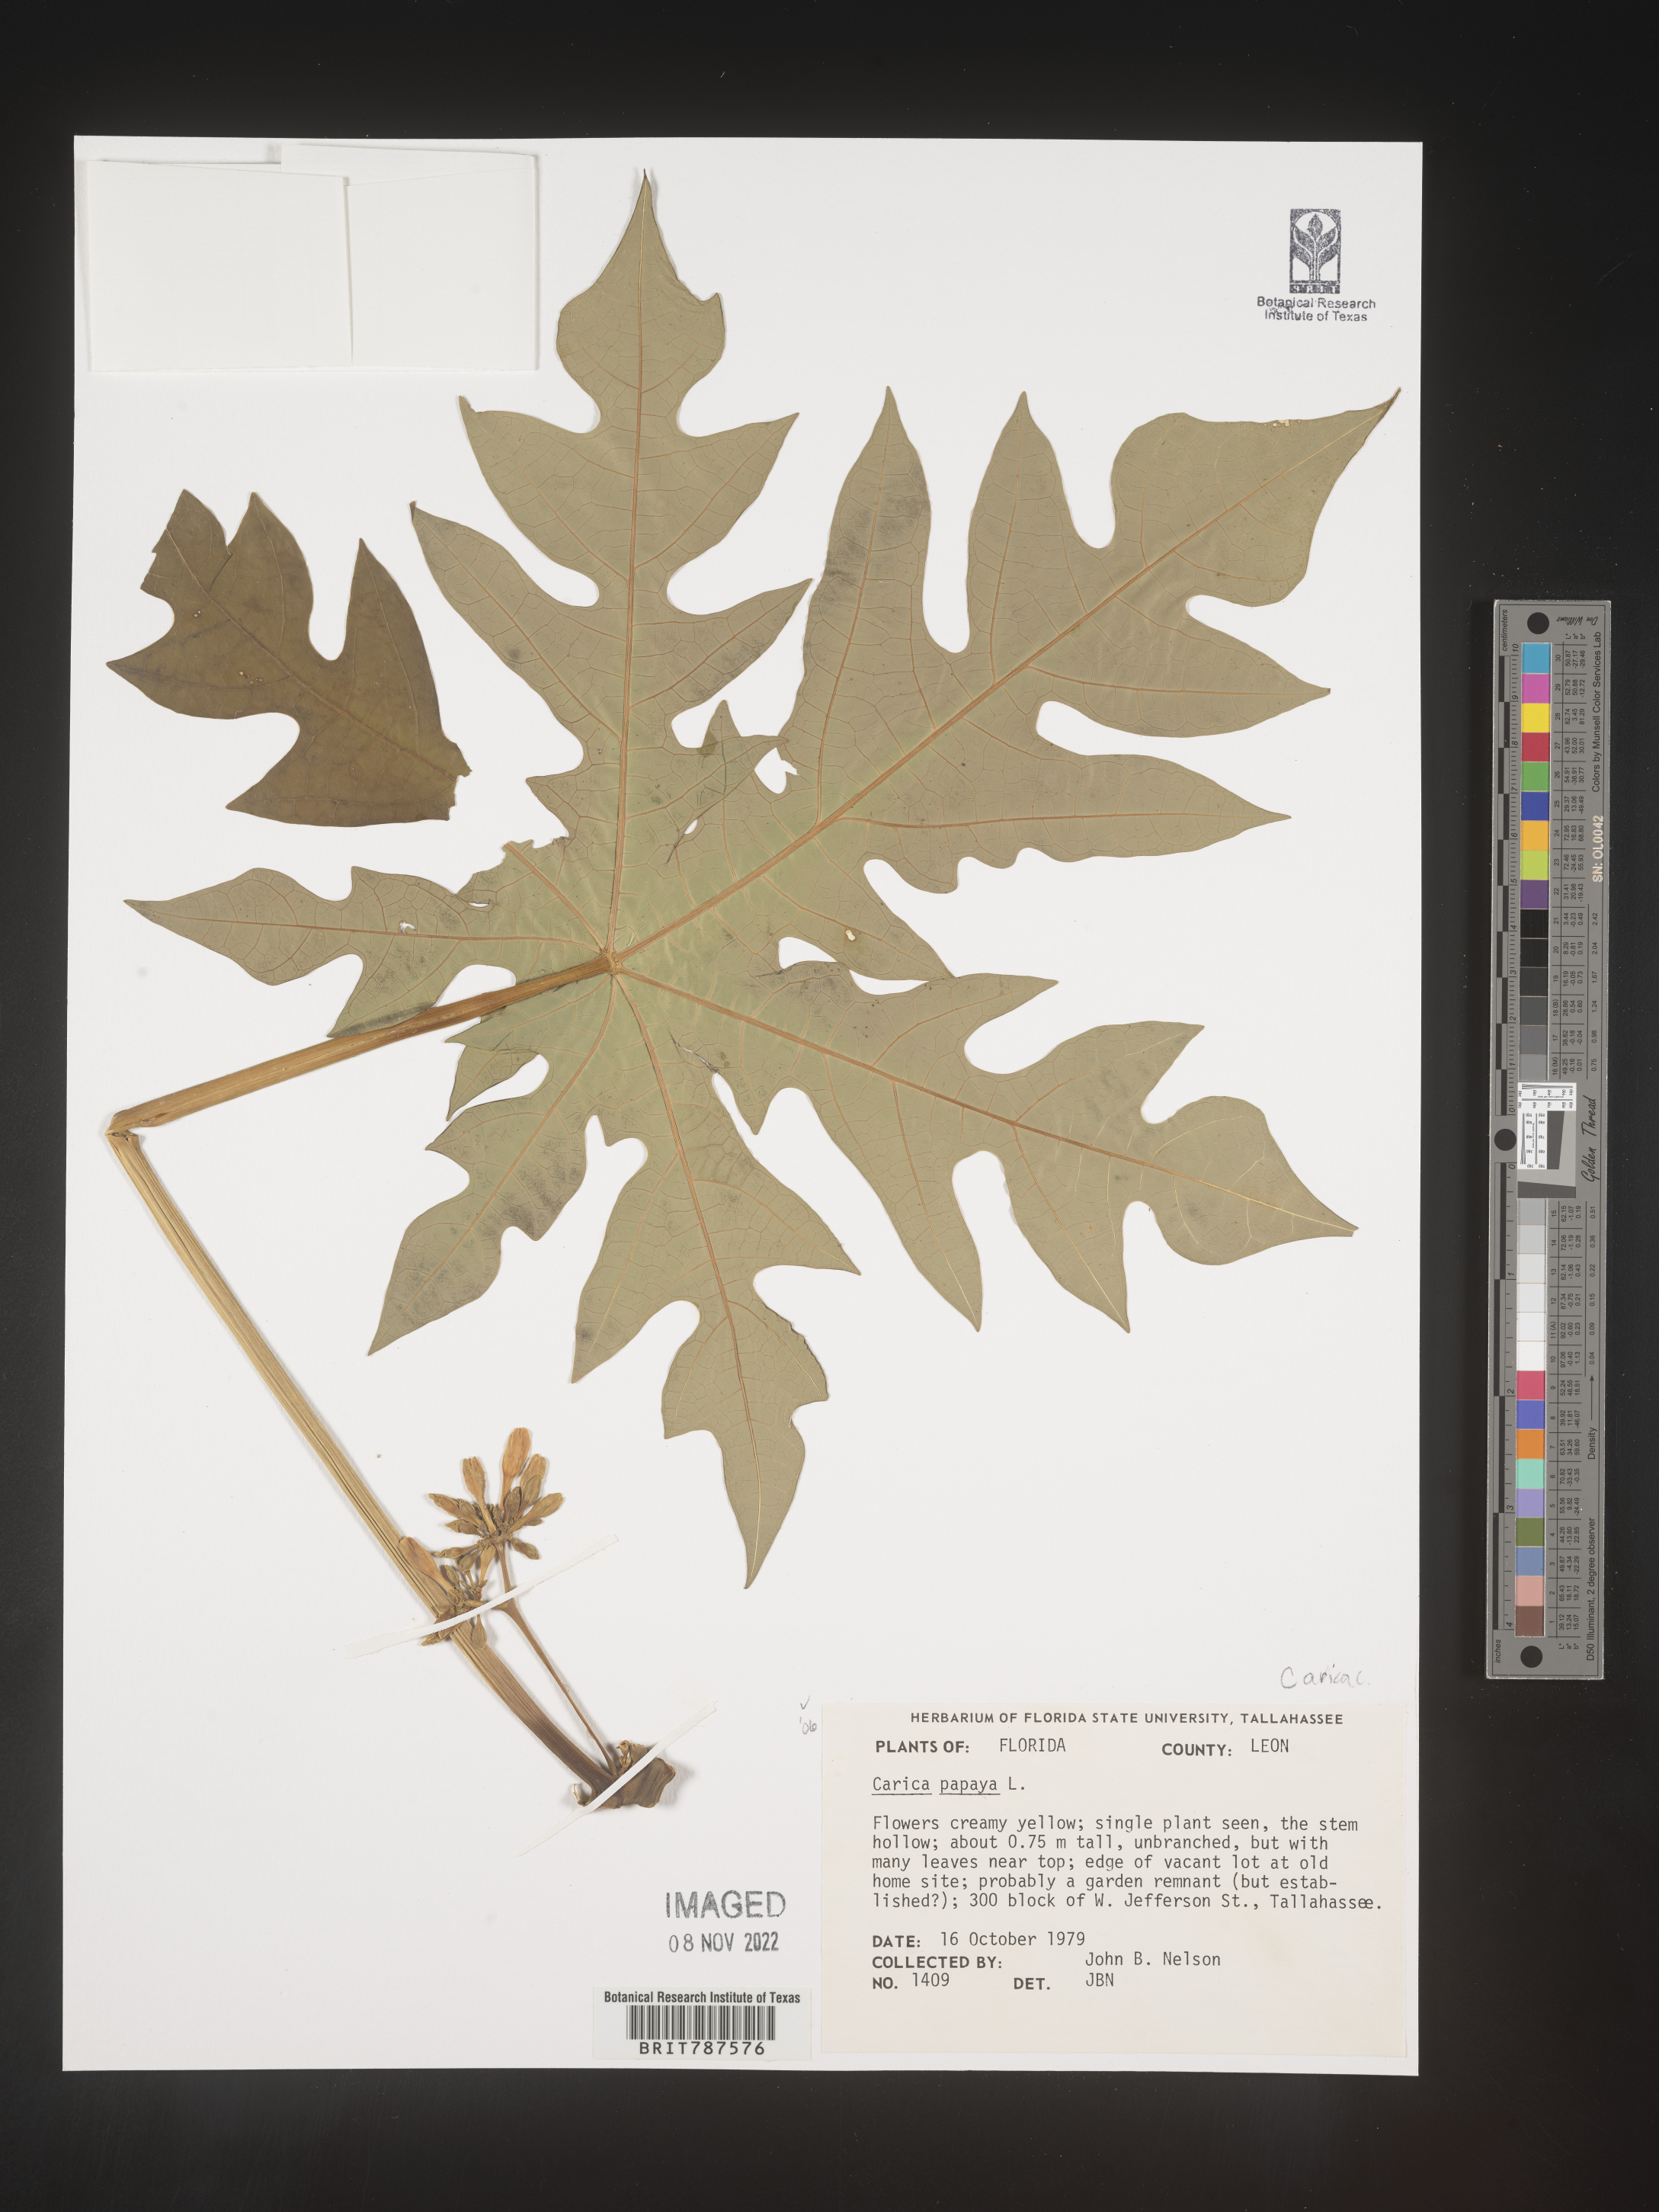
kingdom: Plantae
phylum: Tracheophyta
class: Magnoliopsida
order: Brassicales
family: Caricaceae
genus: Carica
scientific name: Carica
